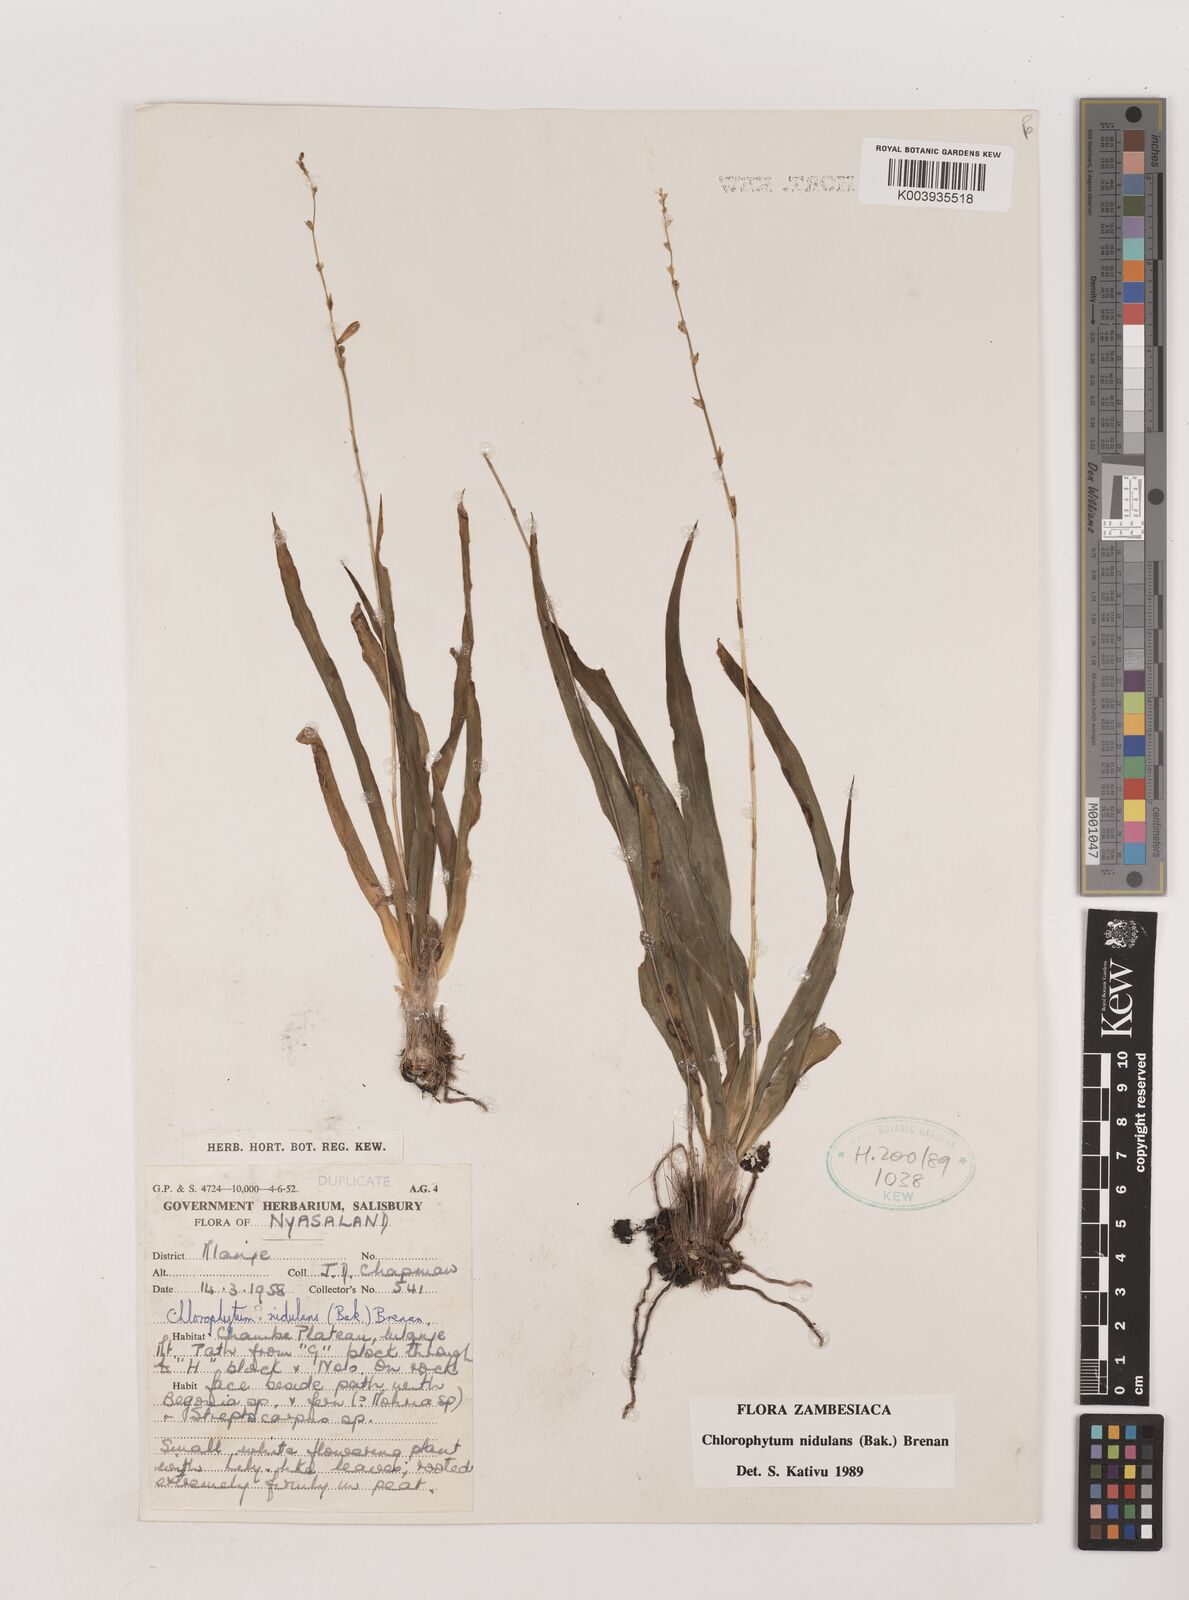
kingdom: Plantae
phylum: Tracheophyta
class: Liliopsida
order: Asparagales
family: Asparagaceae
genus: Chlorophytum
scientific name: Chlorophytum nidulans
